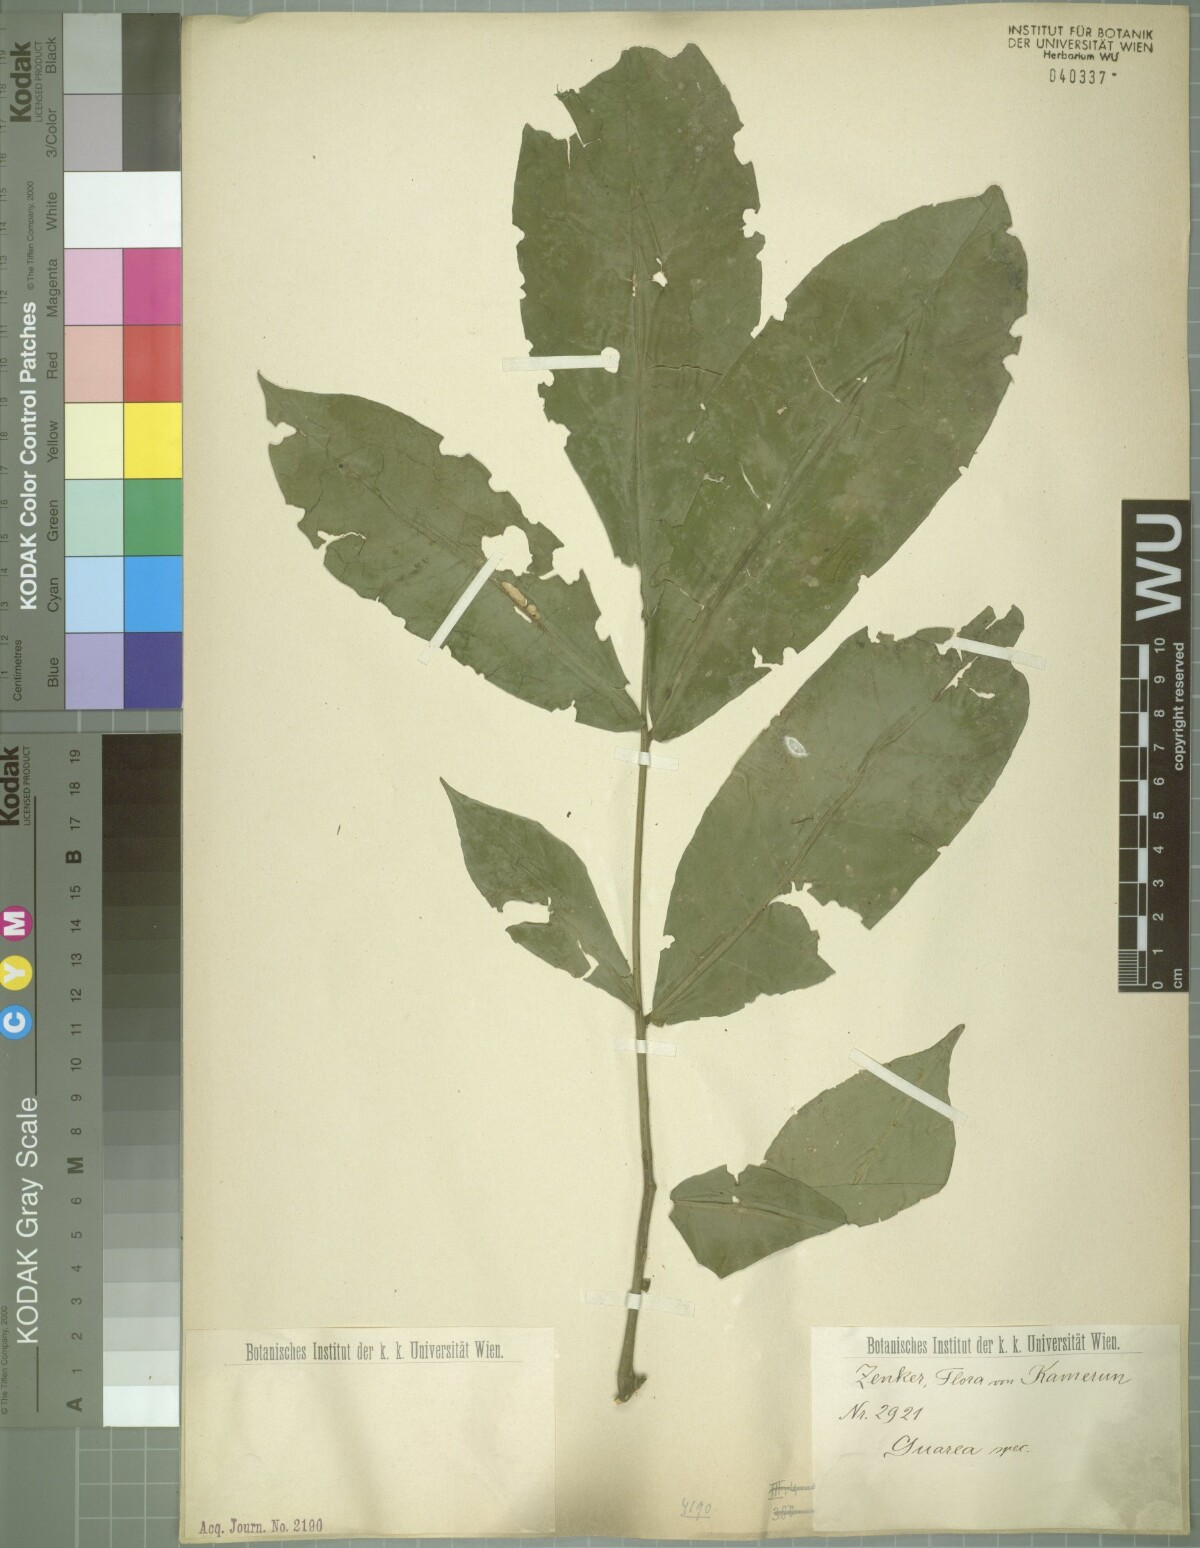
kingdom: Plantae
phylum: Tracheophyta
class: Magnoliopsida
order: Sapindales
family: Meliaceae
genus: Heckeldora
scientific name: Heckeldora zenkeri
